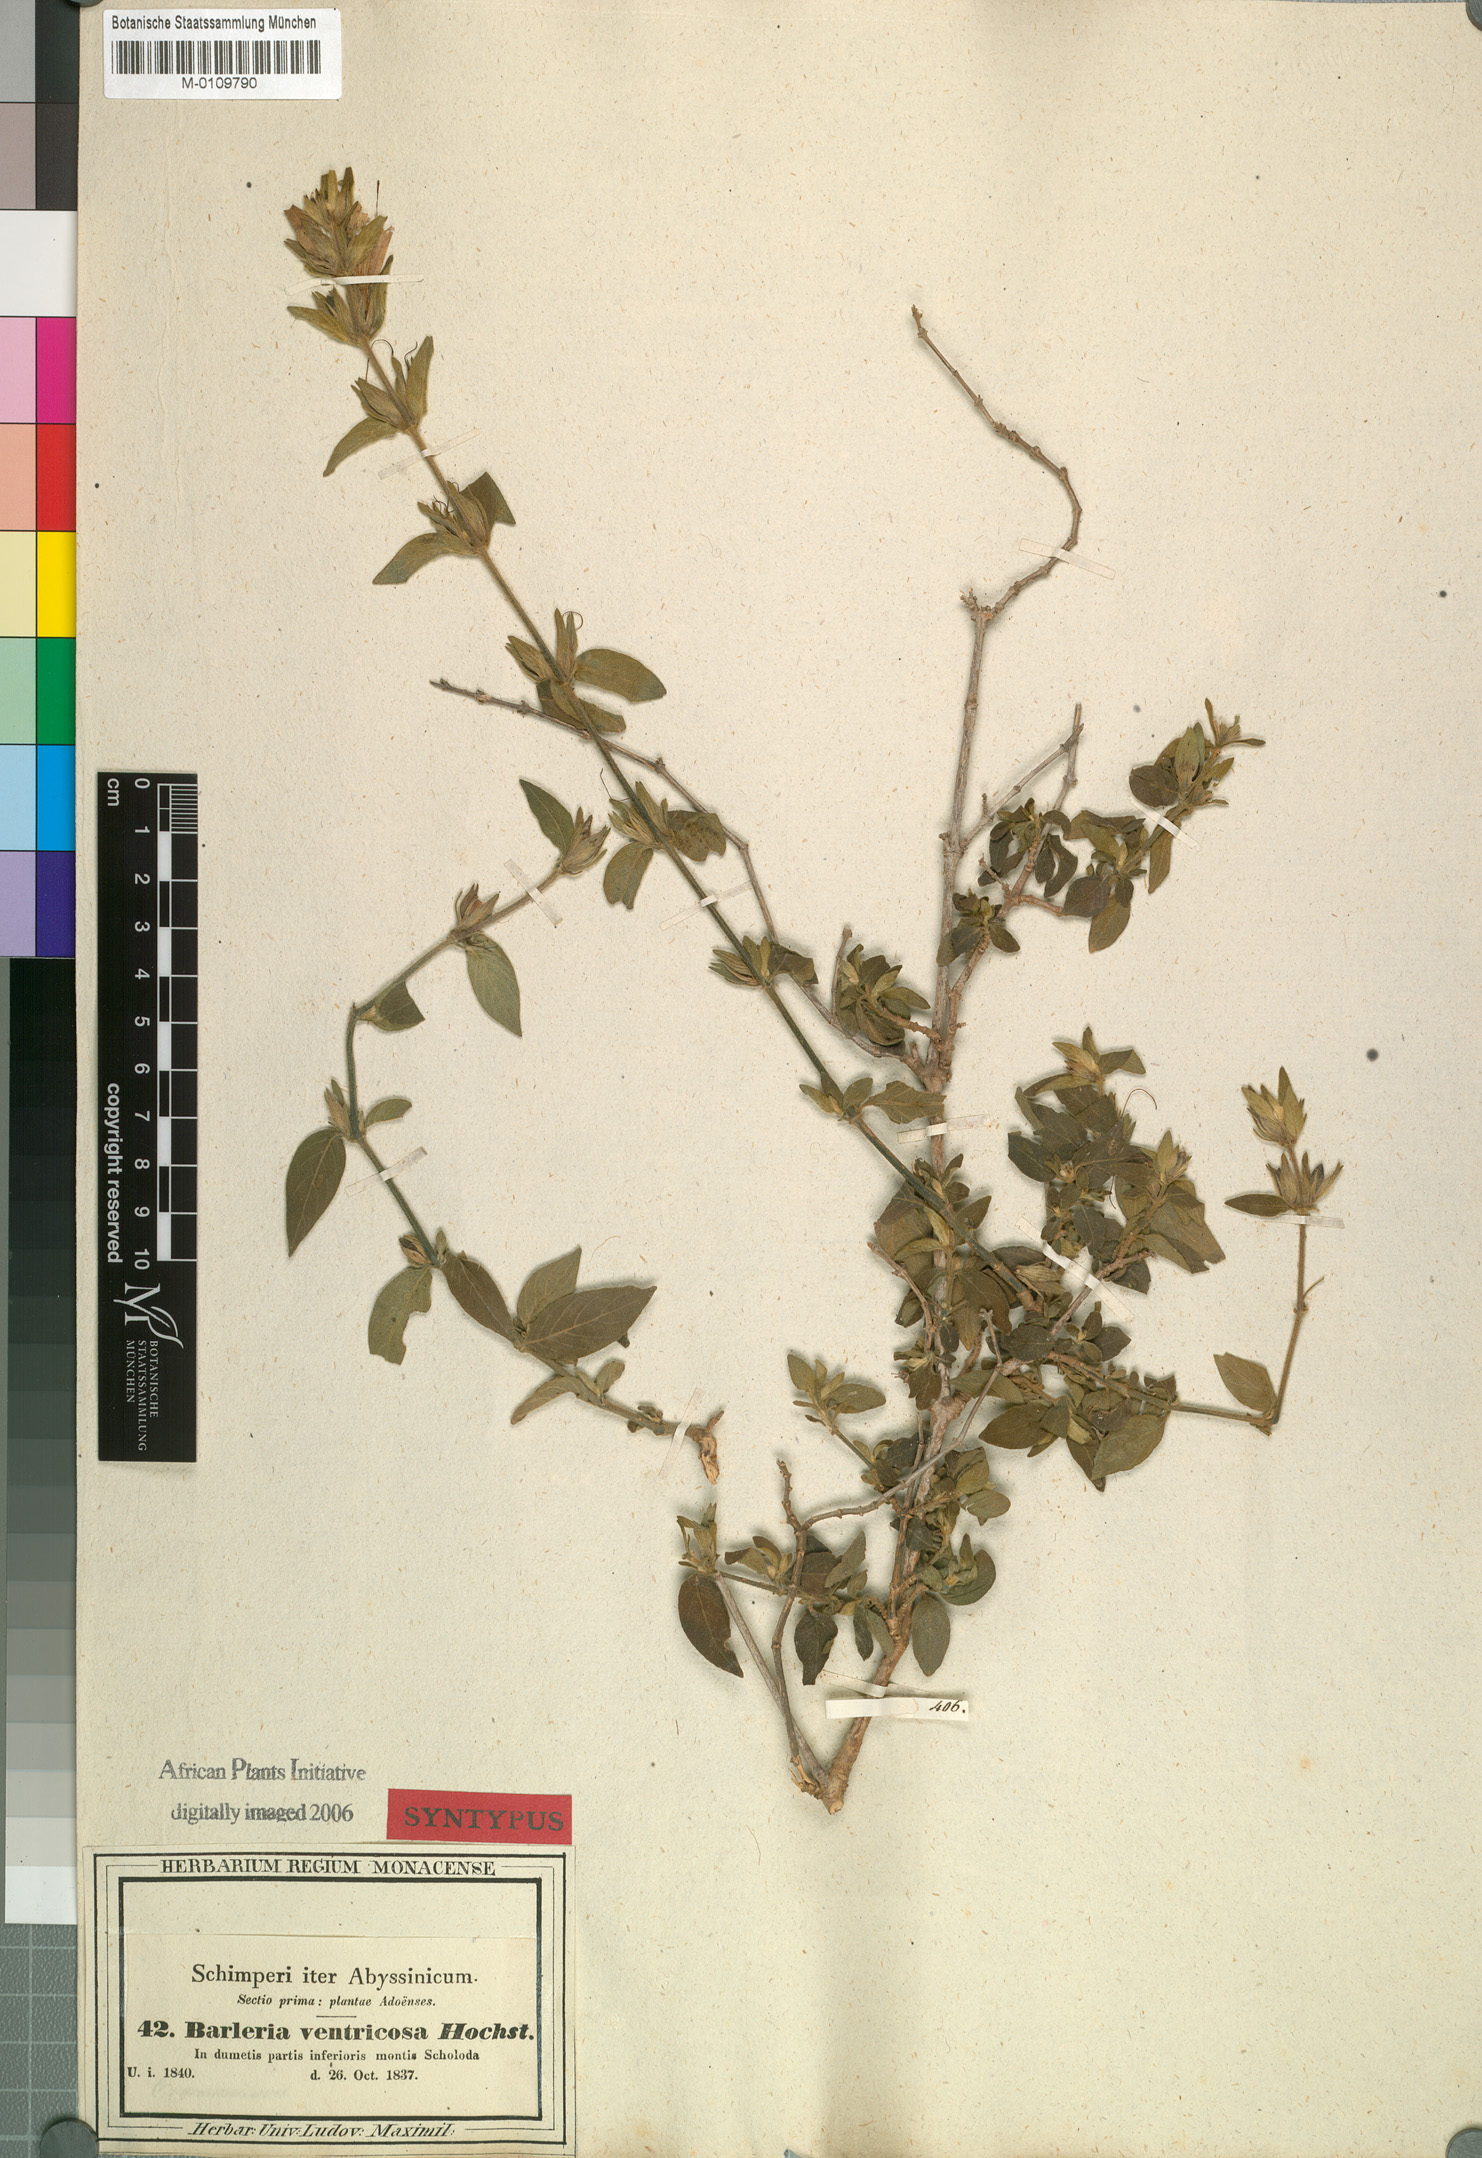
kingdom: Plantae
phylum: Tracheophyta
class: Magnoliopsida
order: Lamiales
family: Acanthaceae
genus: Barleria
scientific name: Barleria ventricosa
